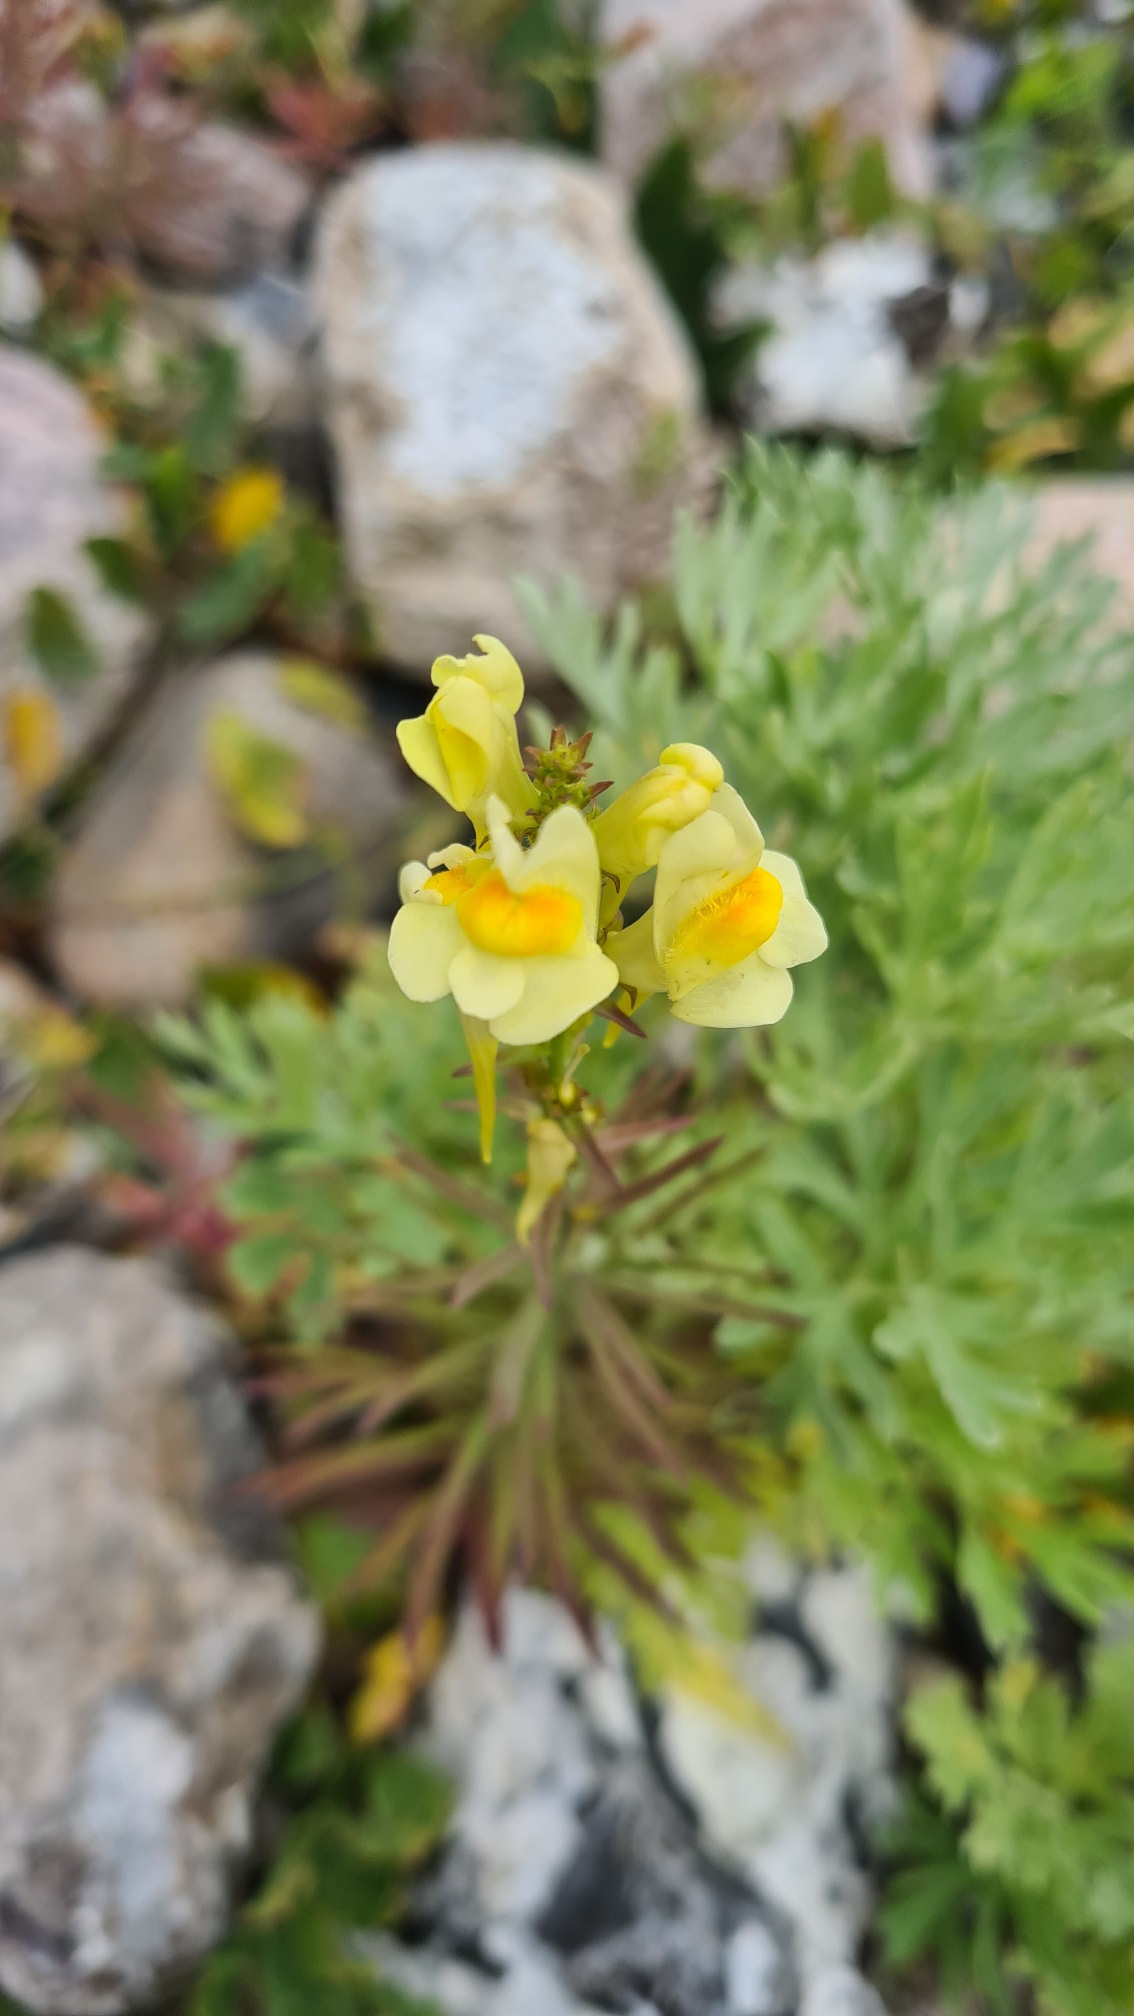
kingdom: Plantae
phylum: Tracheophyta
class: Magnoliopsida
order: Lamiales
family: Plantaginaceae
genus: Linaria
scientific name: Linaria vulgaris
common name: Almindelig torskemund
